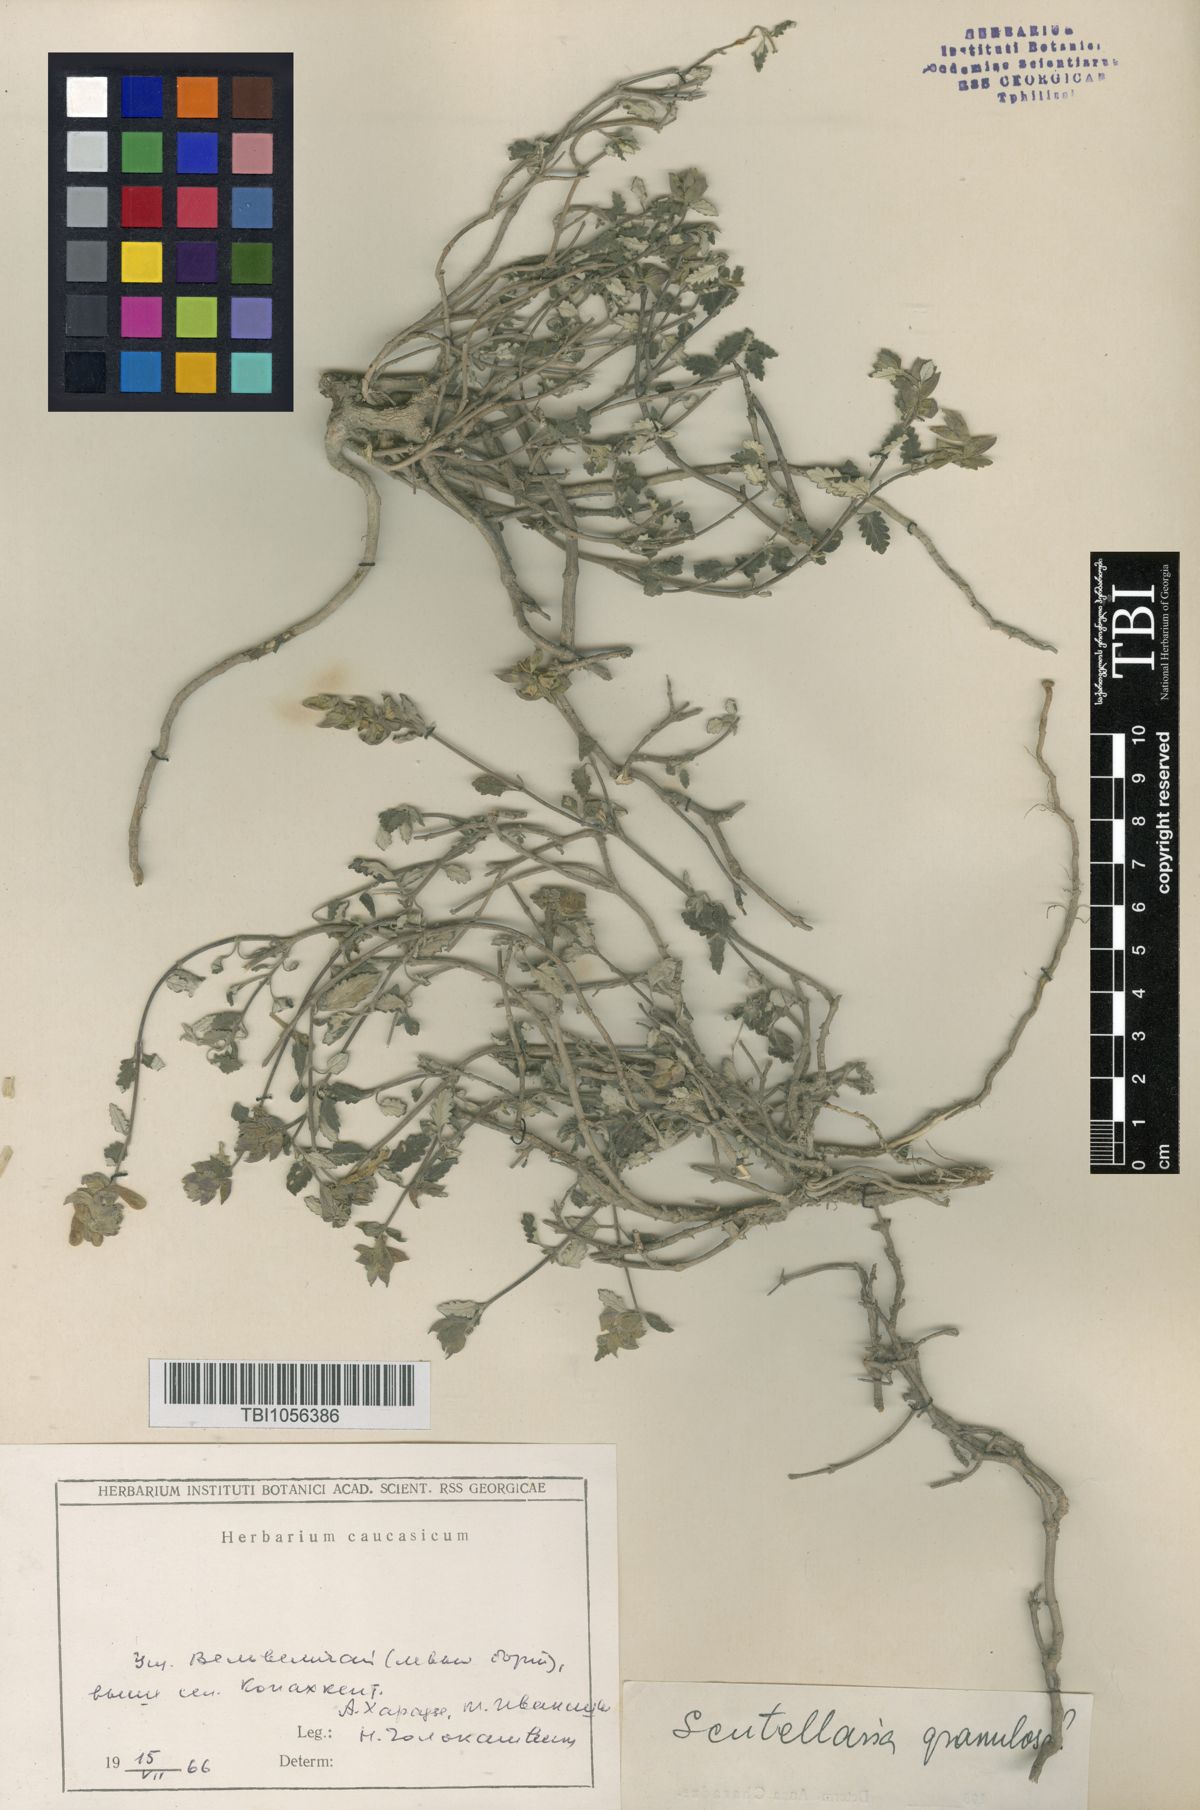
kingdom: Plantae
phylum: Tracheophyta
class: Magnoliopsida
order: Lamiales
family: Lamiaceae
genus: Scutellaria
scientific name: Scutellaria granulosa
